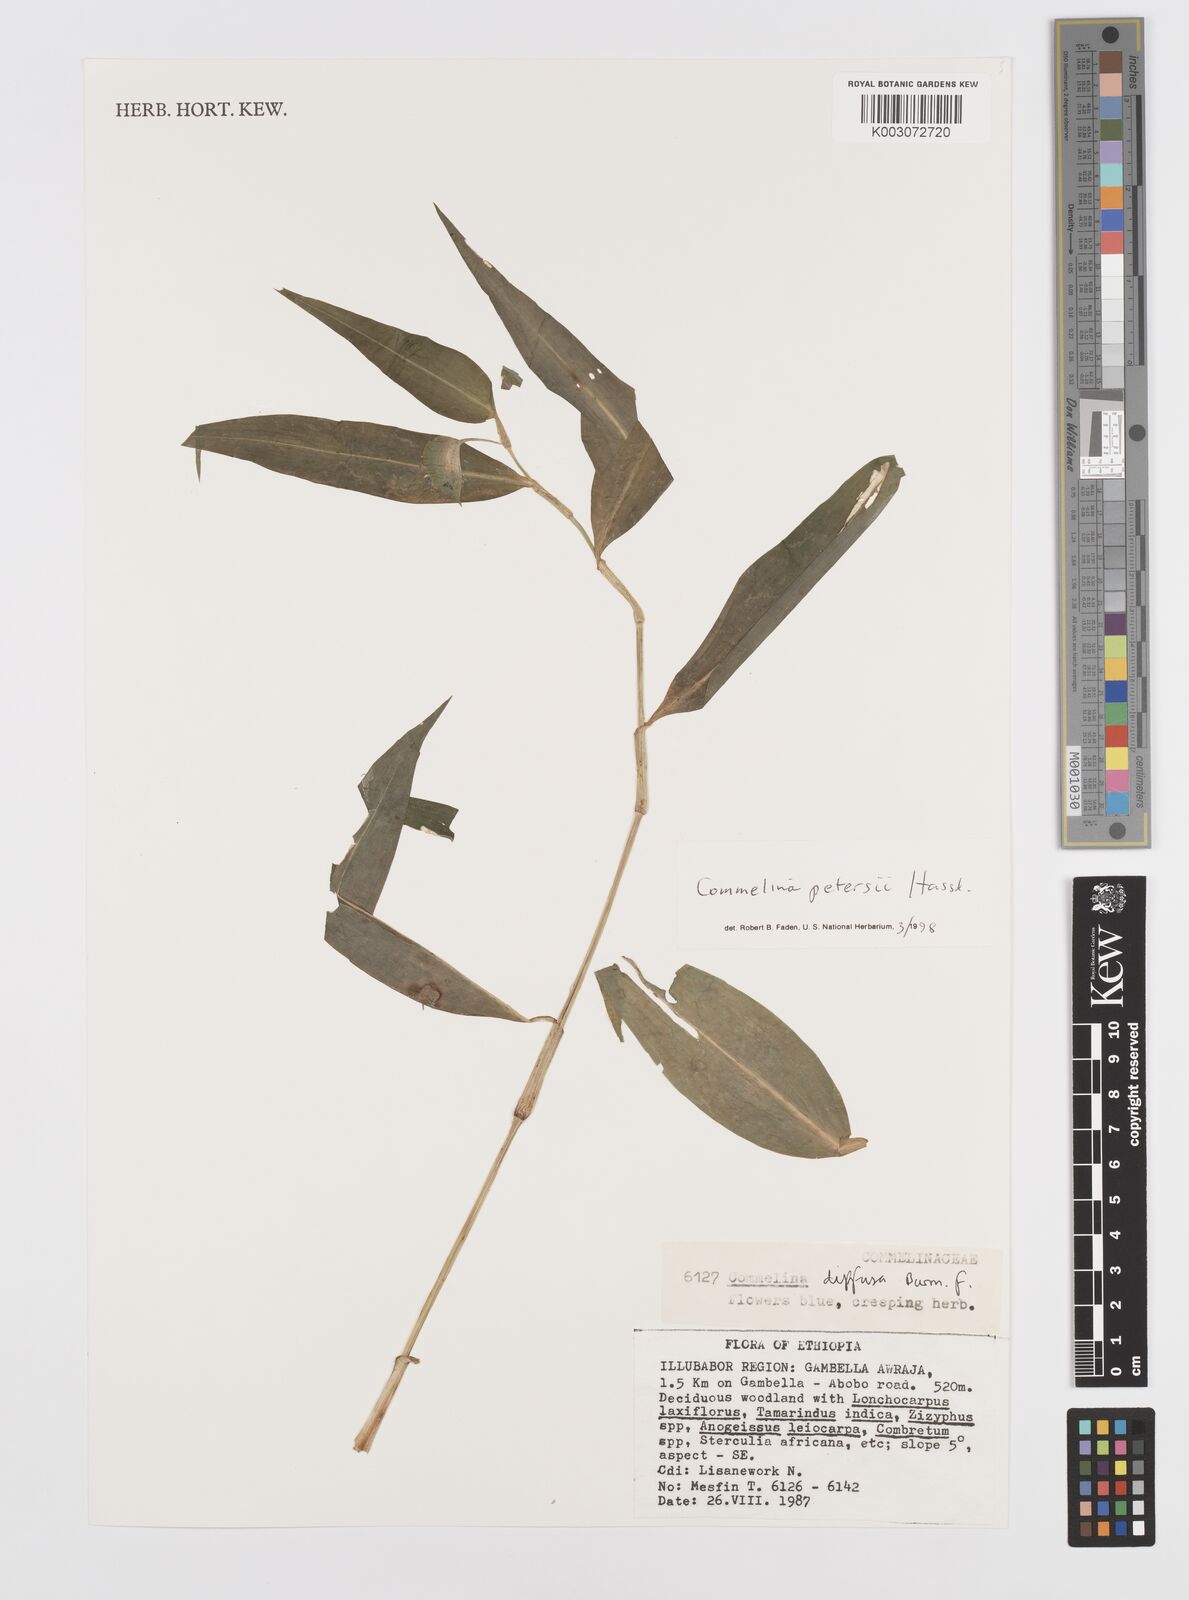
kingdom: Plantae
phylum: Tracheophyta
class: Liliopsida
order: Commelinales
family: Commelinaceae
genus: Commelina
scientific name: Commelina petersii
